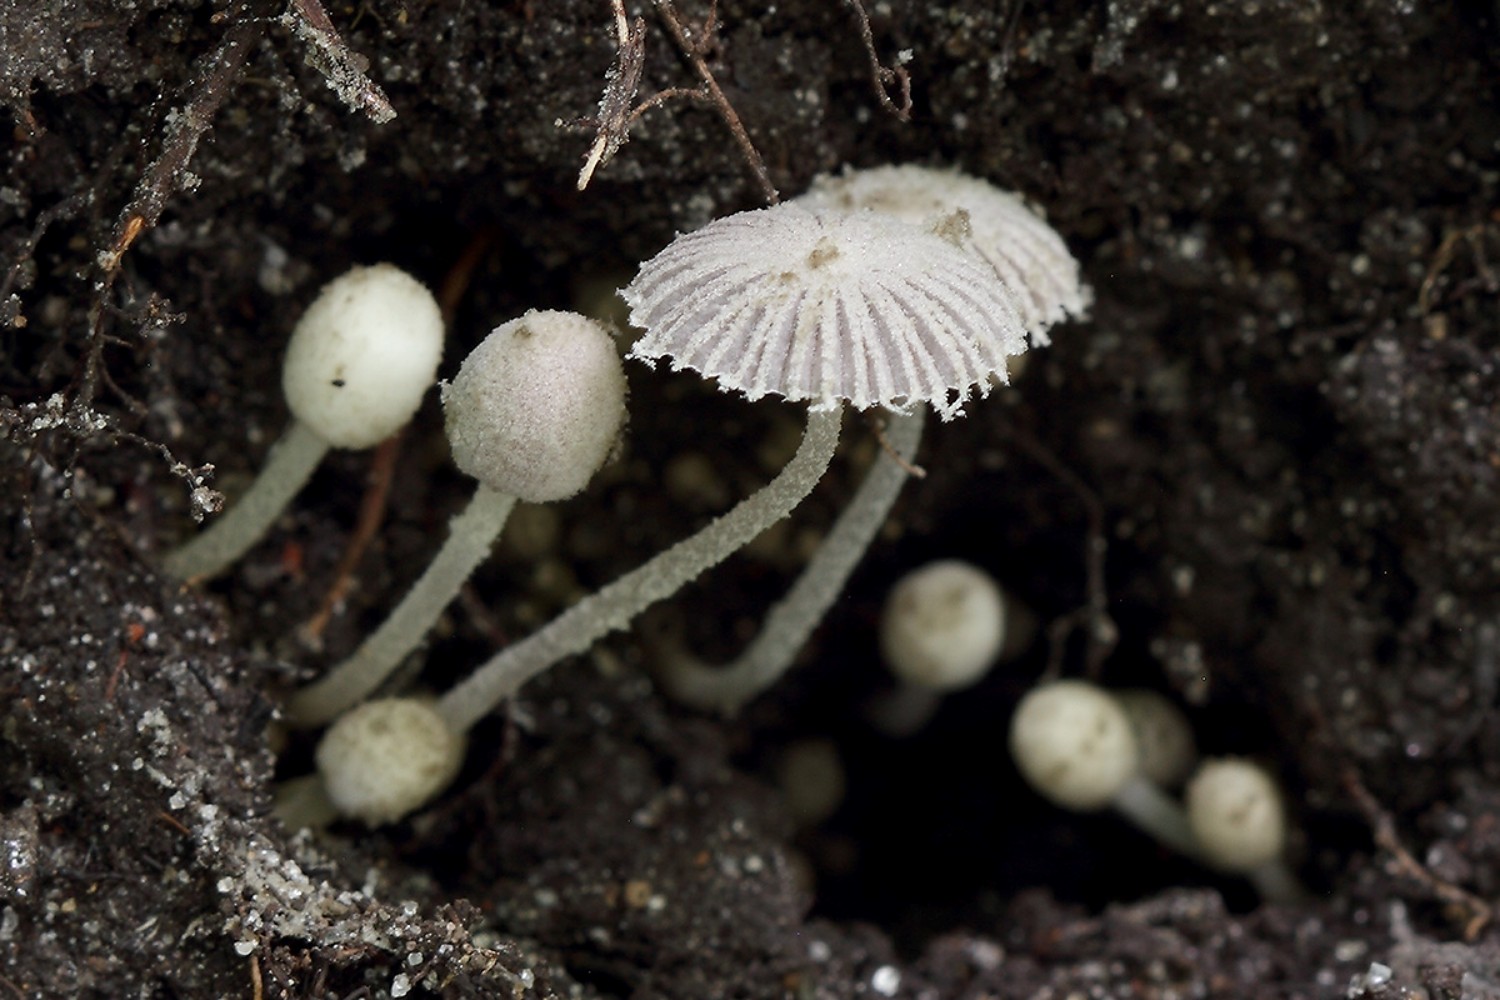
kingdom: Fungi
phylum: Basidiomycota
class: Agaricomycetes
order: Agaricales
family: Psathyrellaceae
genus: Coprinopsis
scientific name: Coprinopsis candidata
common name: hvidklædt blækhat
